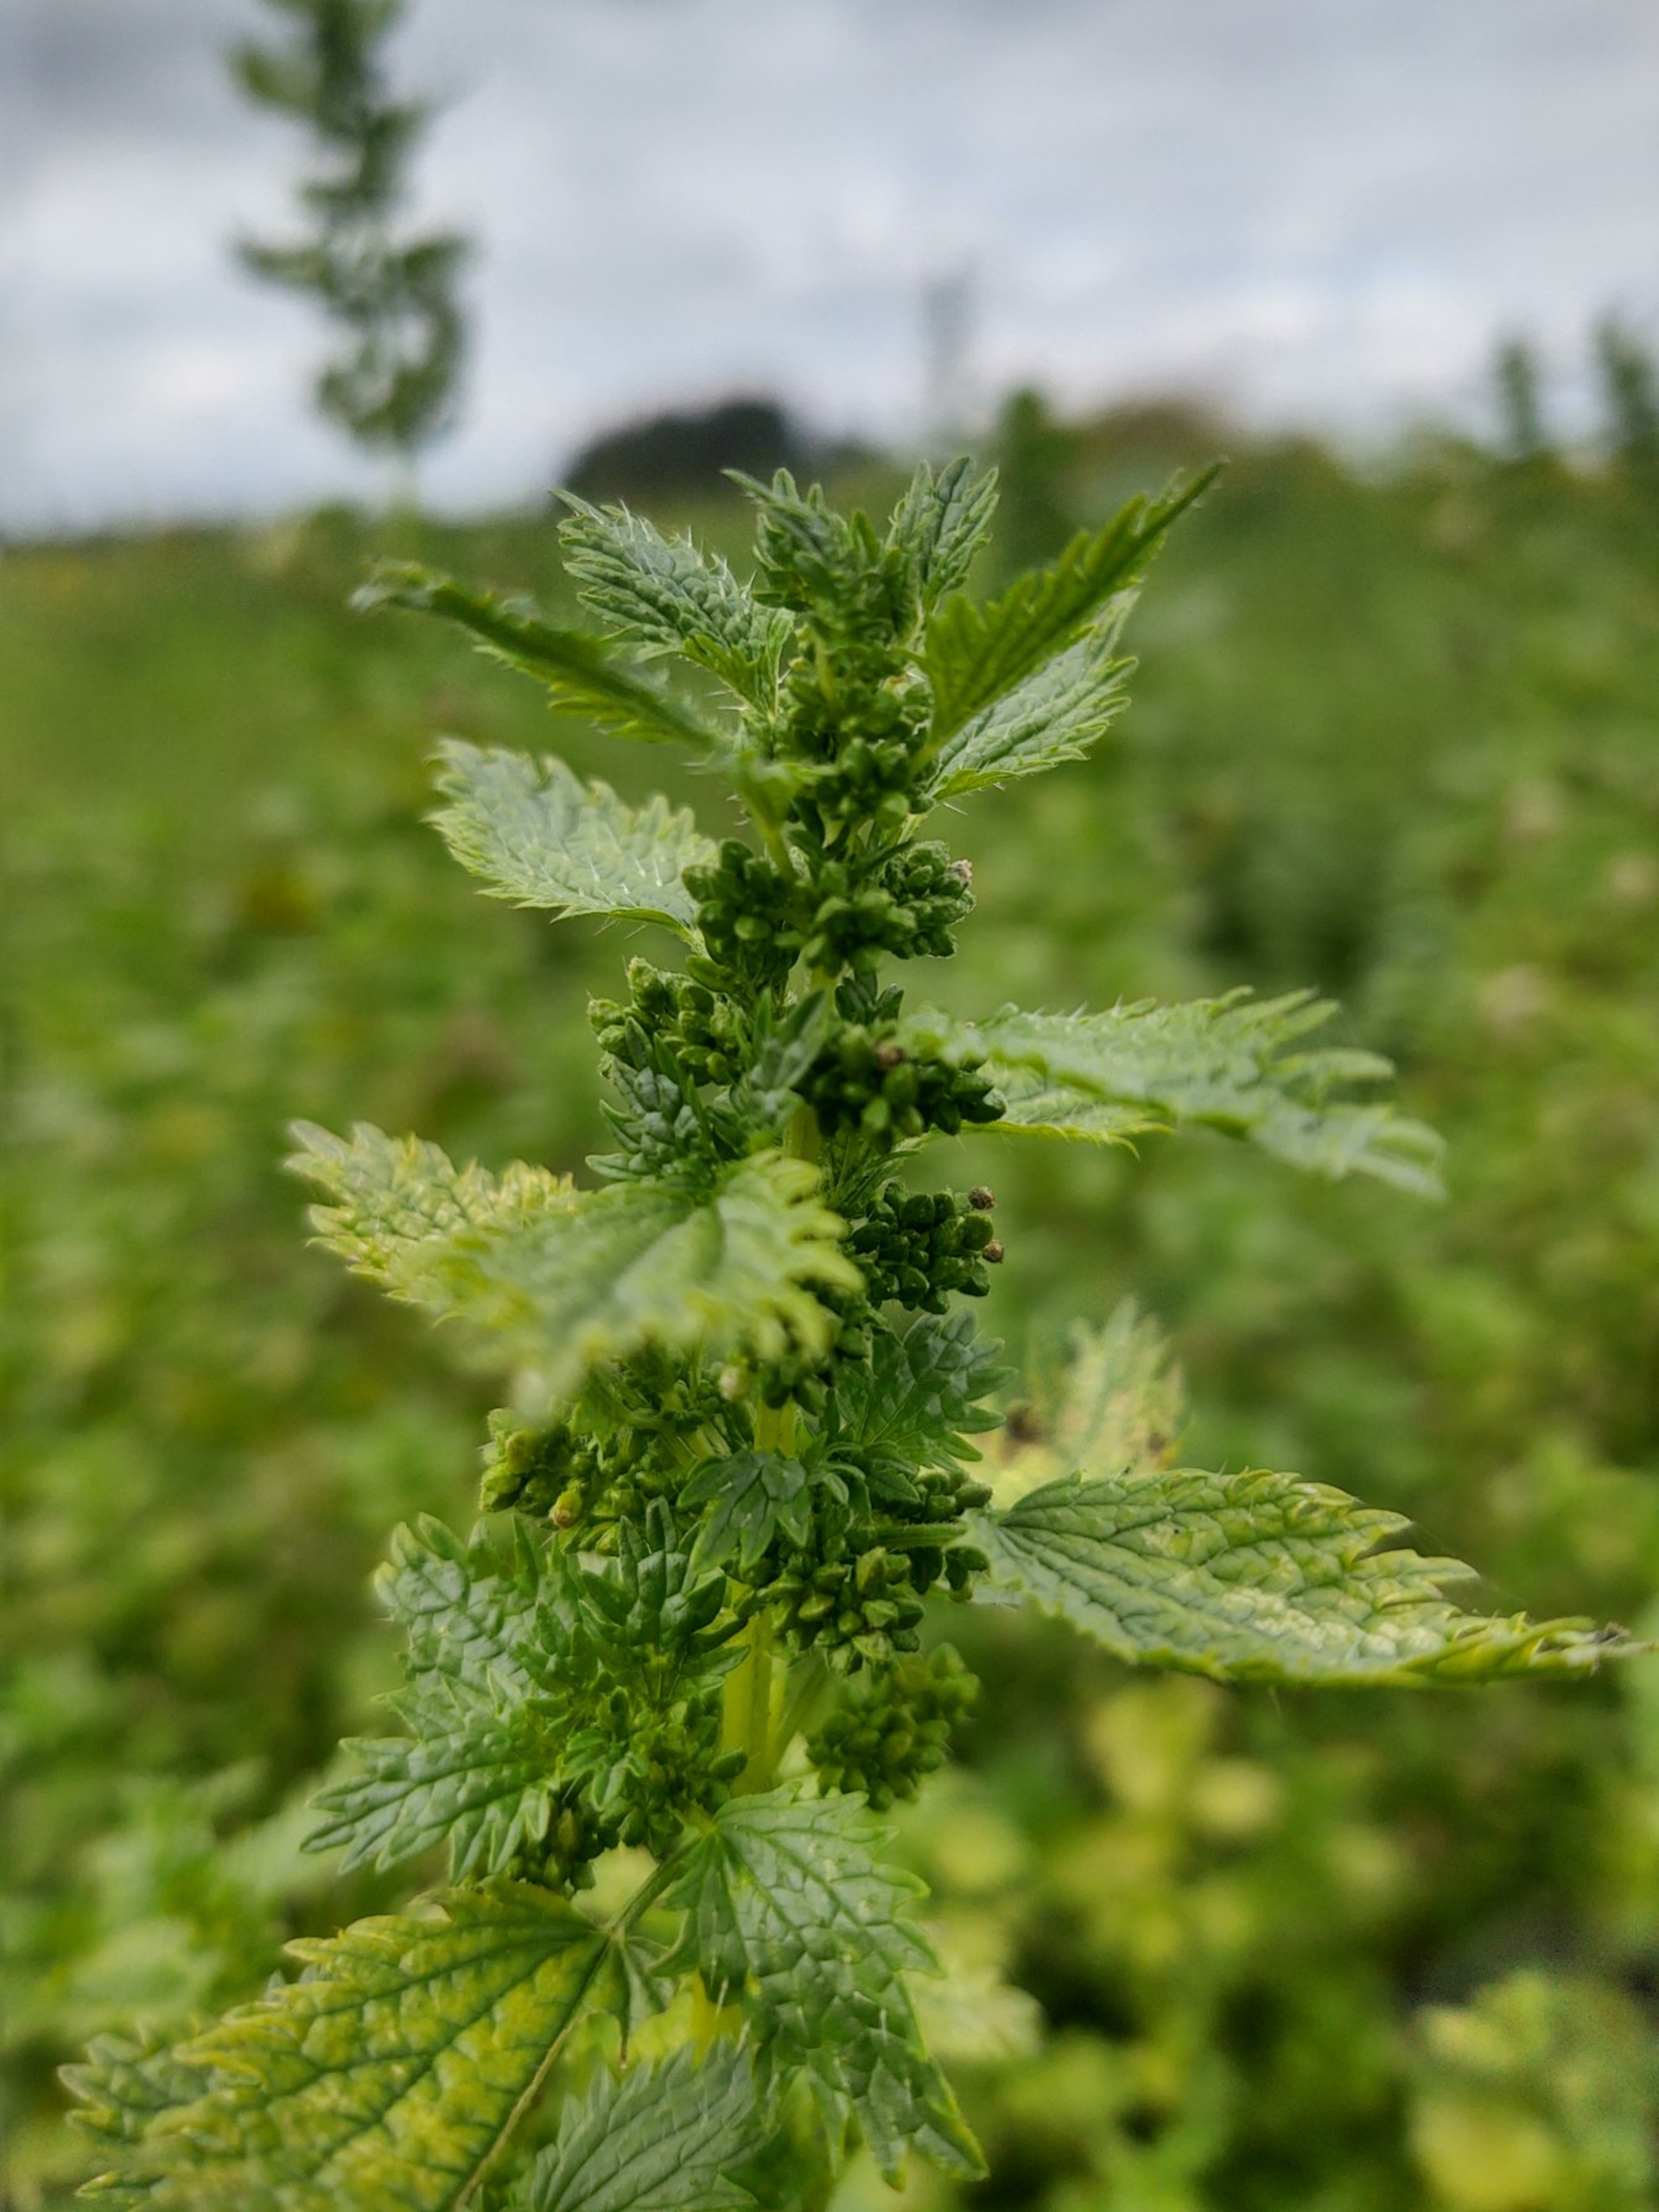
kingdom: Plantae
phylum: Tracheophyta
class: Magnoliopsida
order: Rosales
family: Urticaceae
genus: Urtica
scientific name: Urtica urens
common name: Liden nælde
